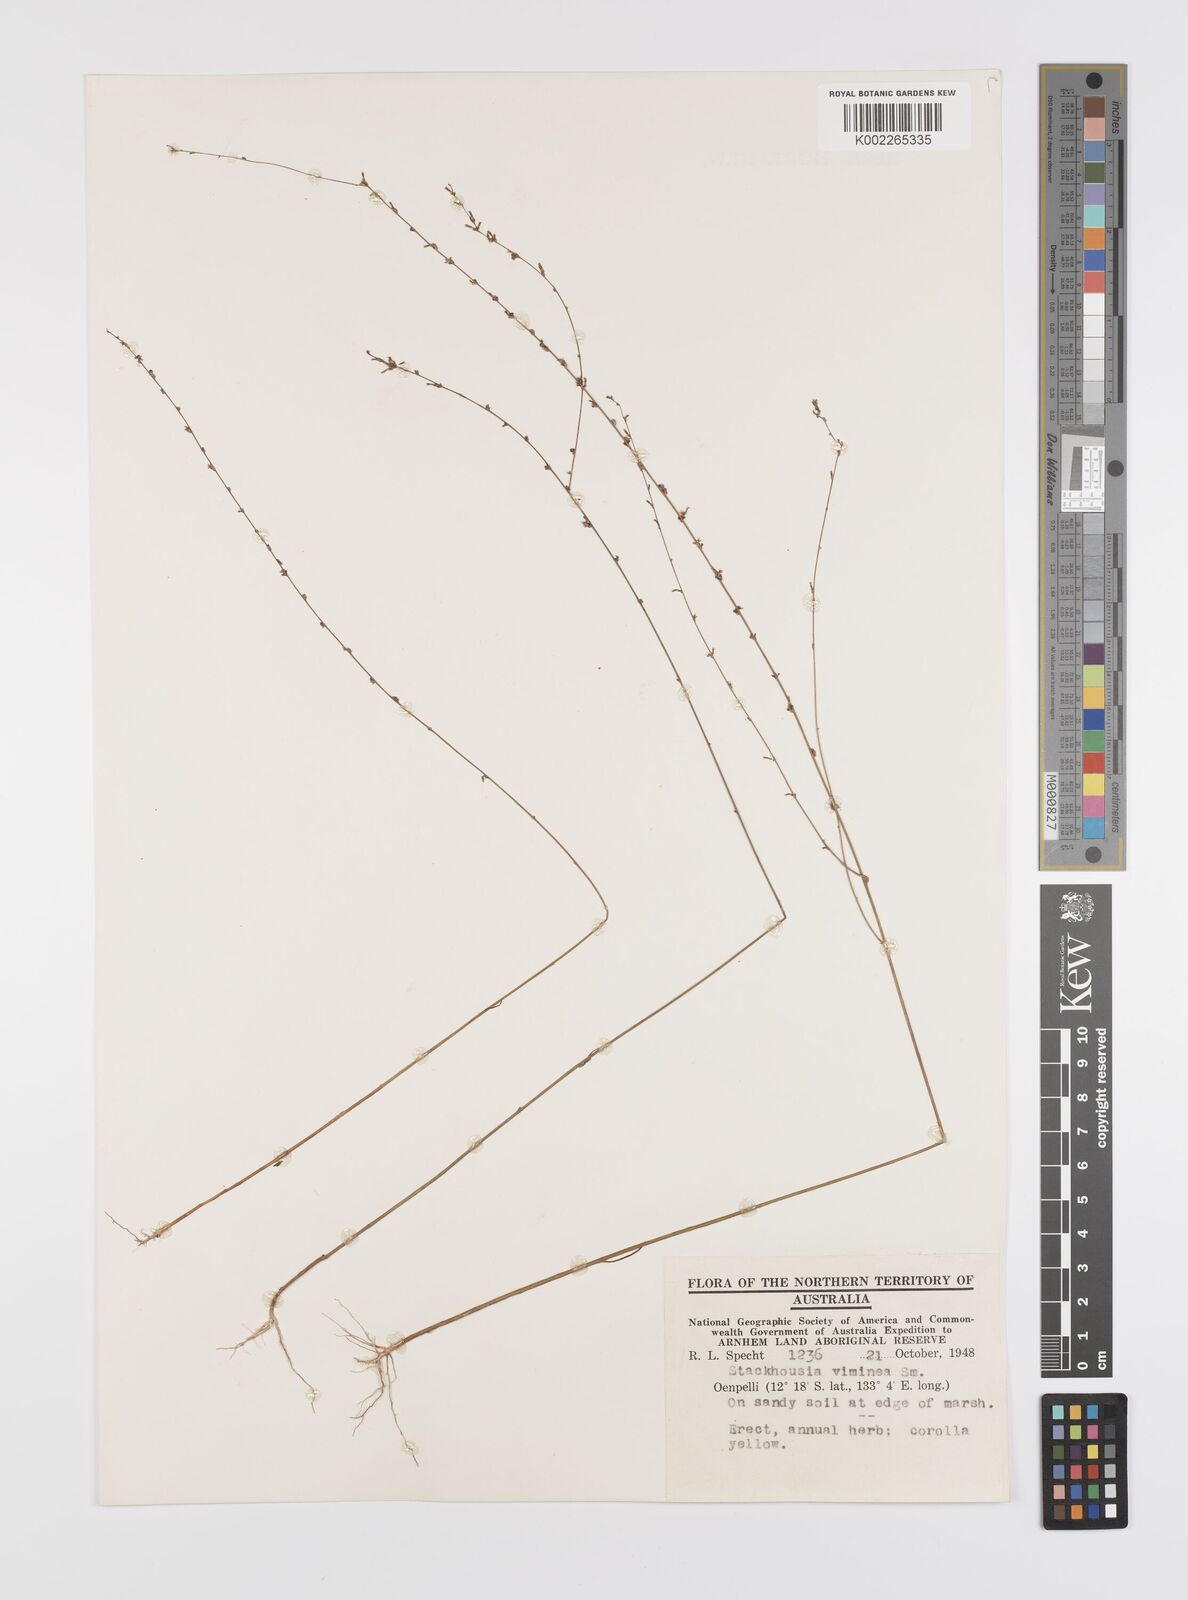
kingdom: Plantae
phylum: Tracheophyta
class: Magnoliopsida
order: Celastrales
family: Celastraceae
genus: Stackhousia
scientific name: Stackhousia viminea
